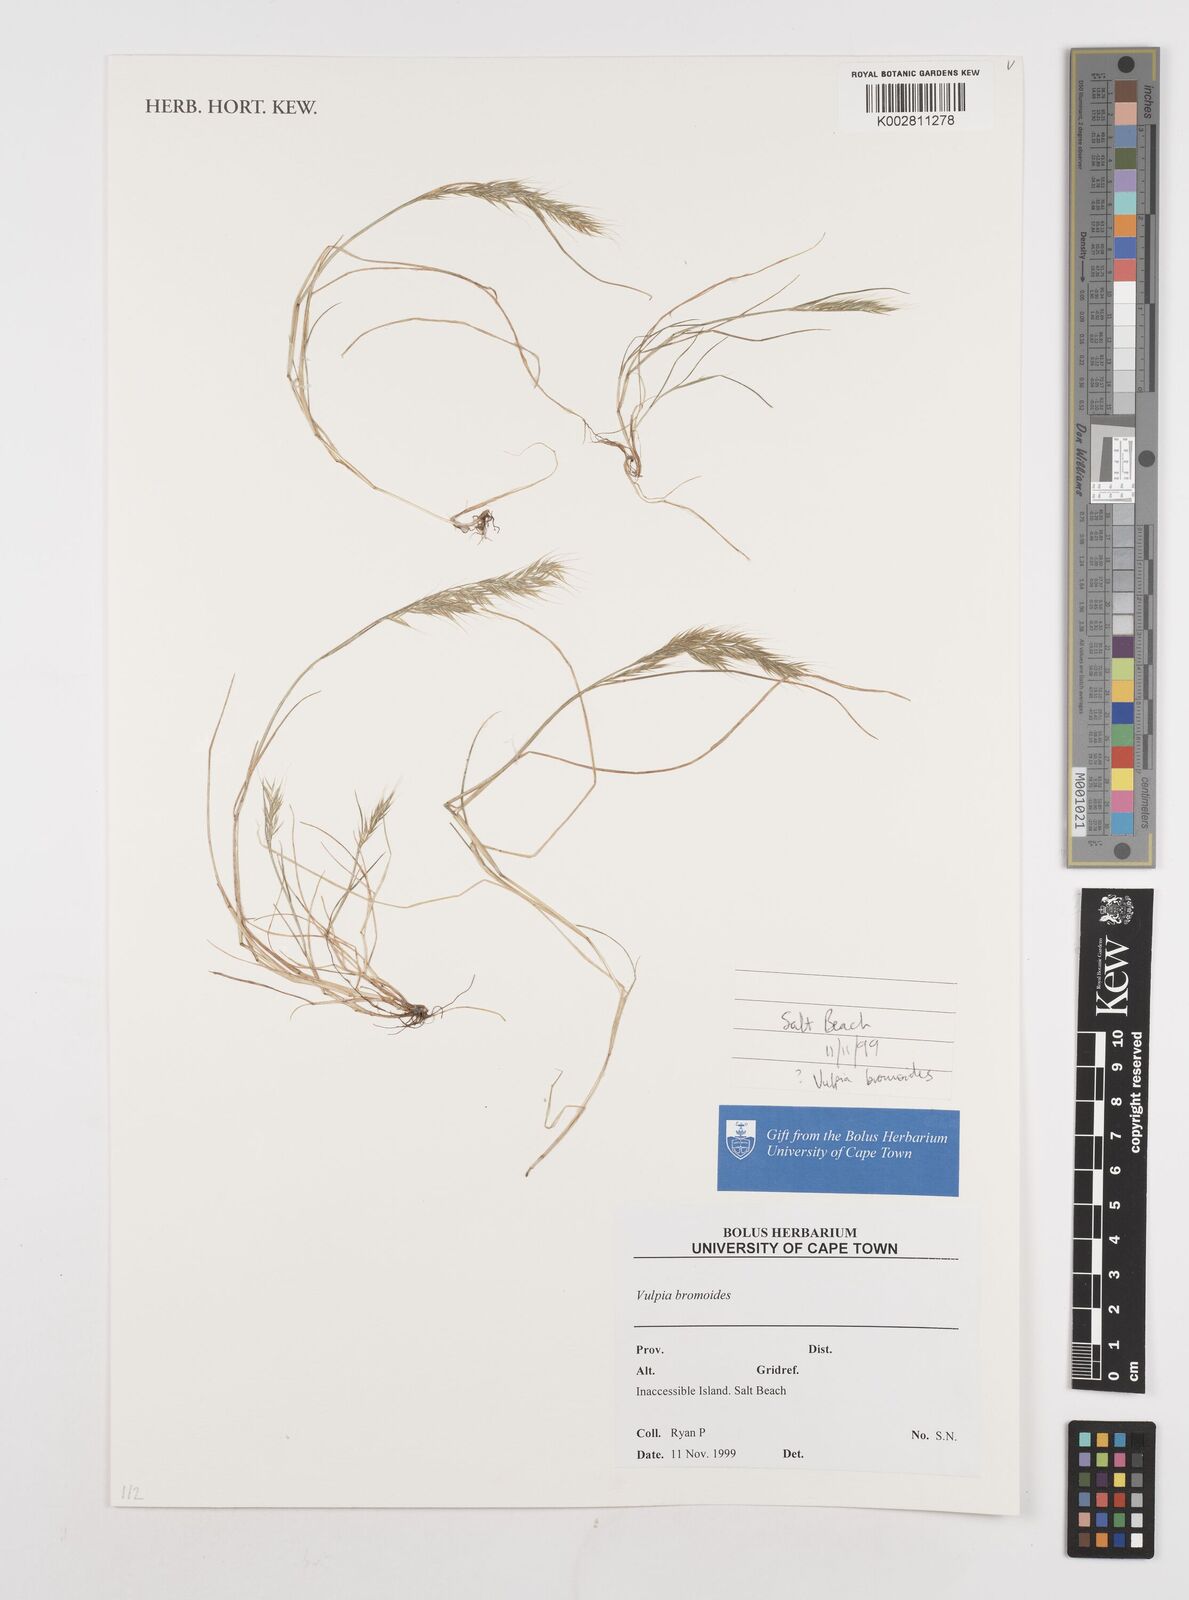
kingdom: Plantae
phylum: Tracheophyta
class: Liliopsida
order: Poales
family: Poaceae
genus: Festuca
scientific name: Festuca bromoides
